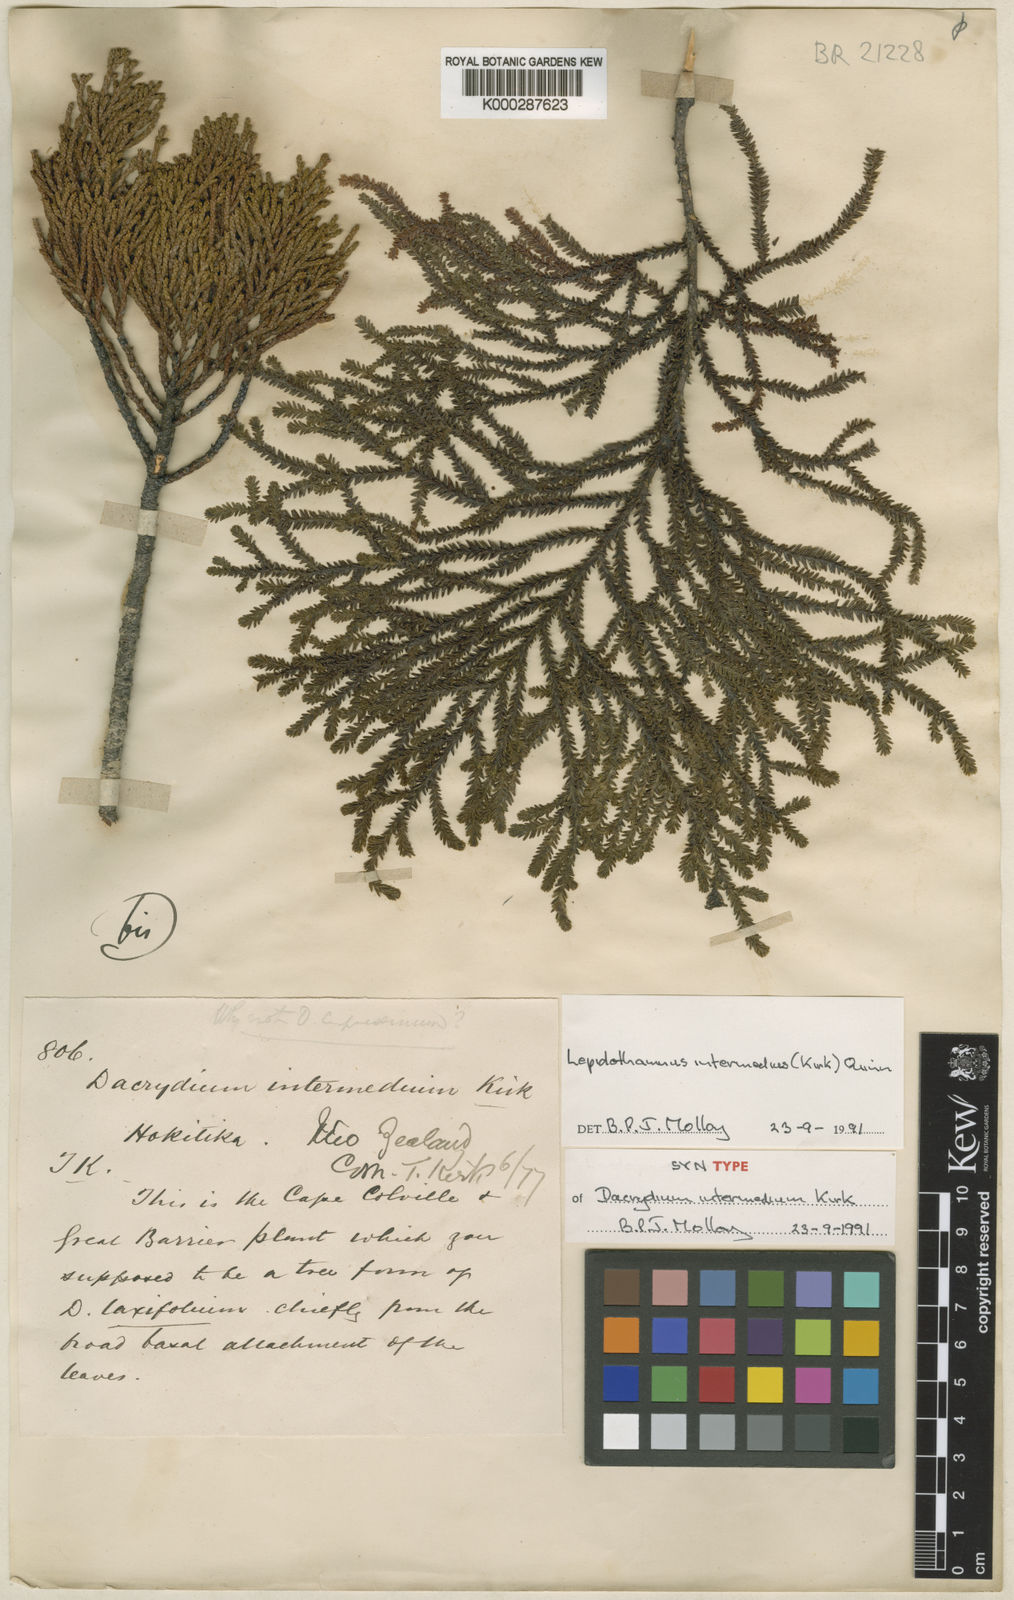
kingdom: Plantae
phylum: Tracheophyta
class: Pinopsida
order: Pinales
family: Podocarpaceae
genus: Lepidothamnus
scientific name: Lepidothamnus intermedius
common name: Yellow silver pine
